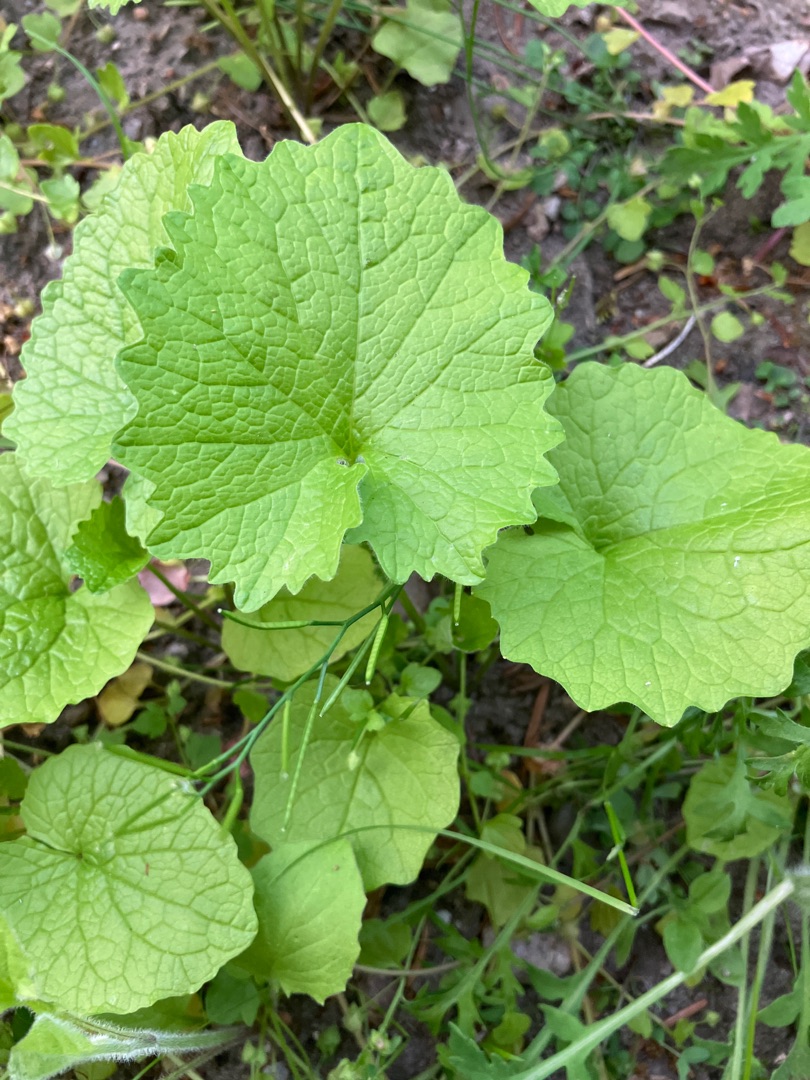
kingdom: Plantae
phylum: Tracheophyta
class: Magnoliopsida
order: Brassicales
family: Brassicaceae
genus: Alliaria
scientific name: Alliaria petiolata
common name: Løgkarse
